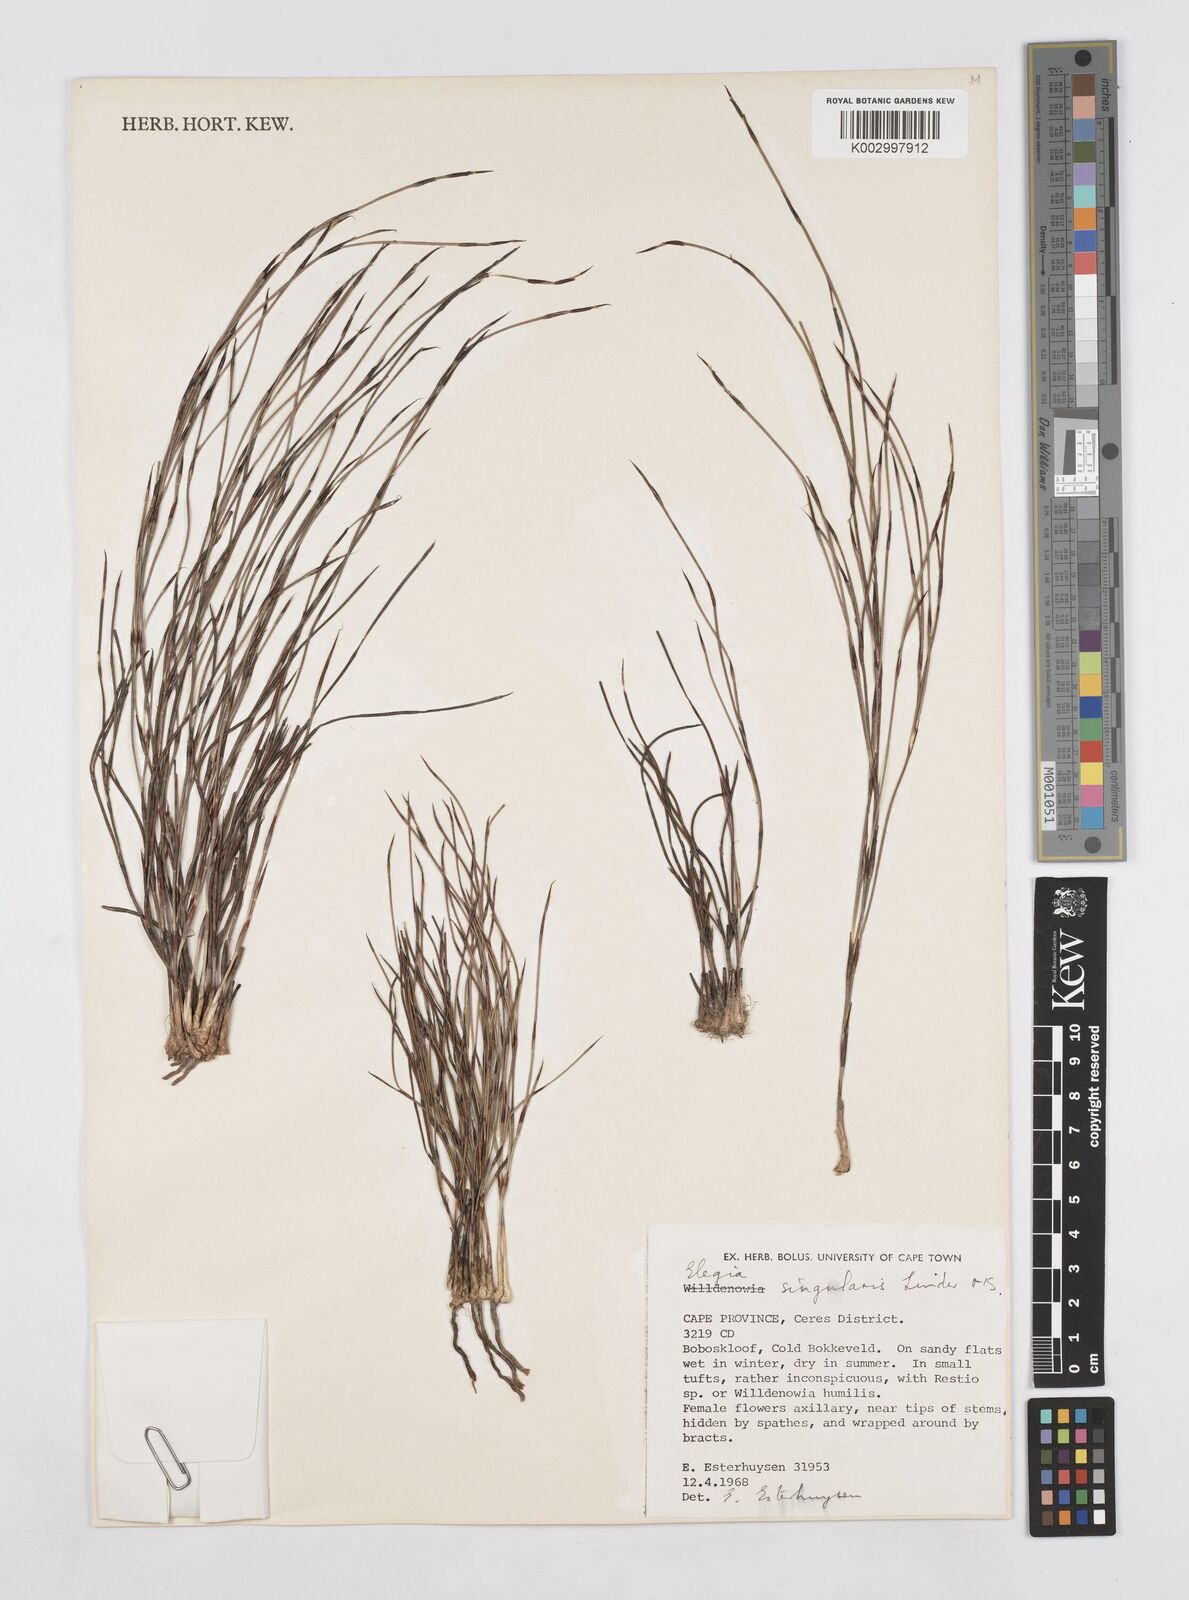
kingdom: Plantae
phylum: Tracheophyta
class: Liliopsida
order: Poales
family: Restionaceae
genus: Elegia
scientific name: Elegia
